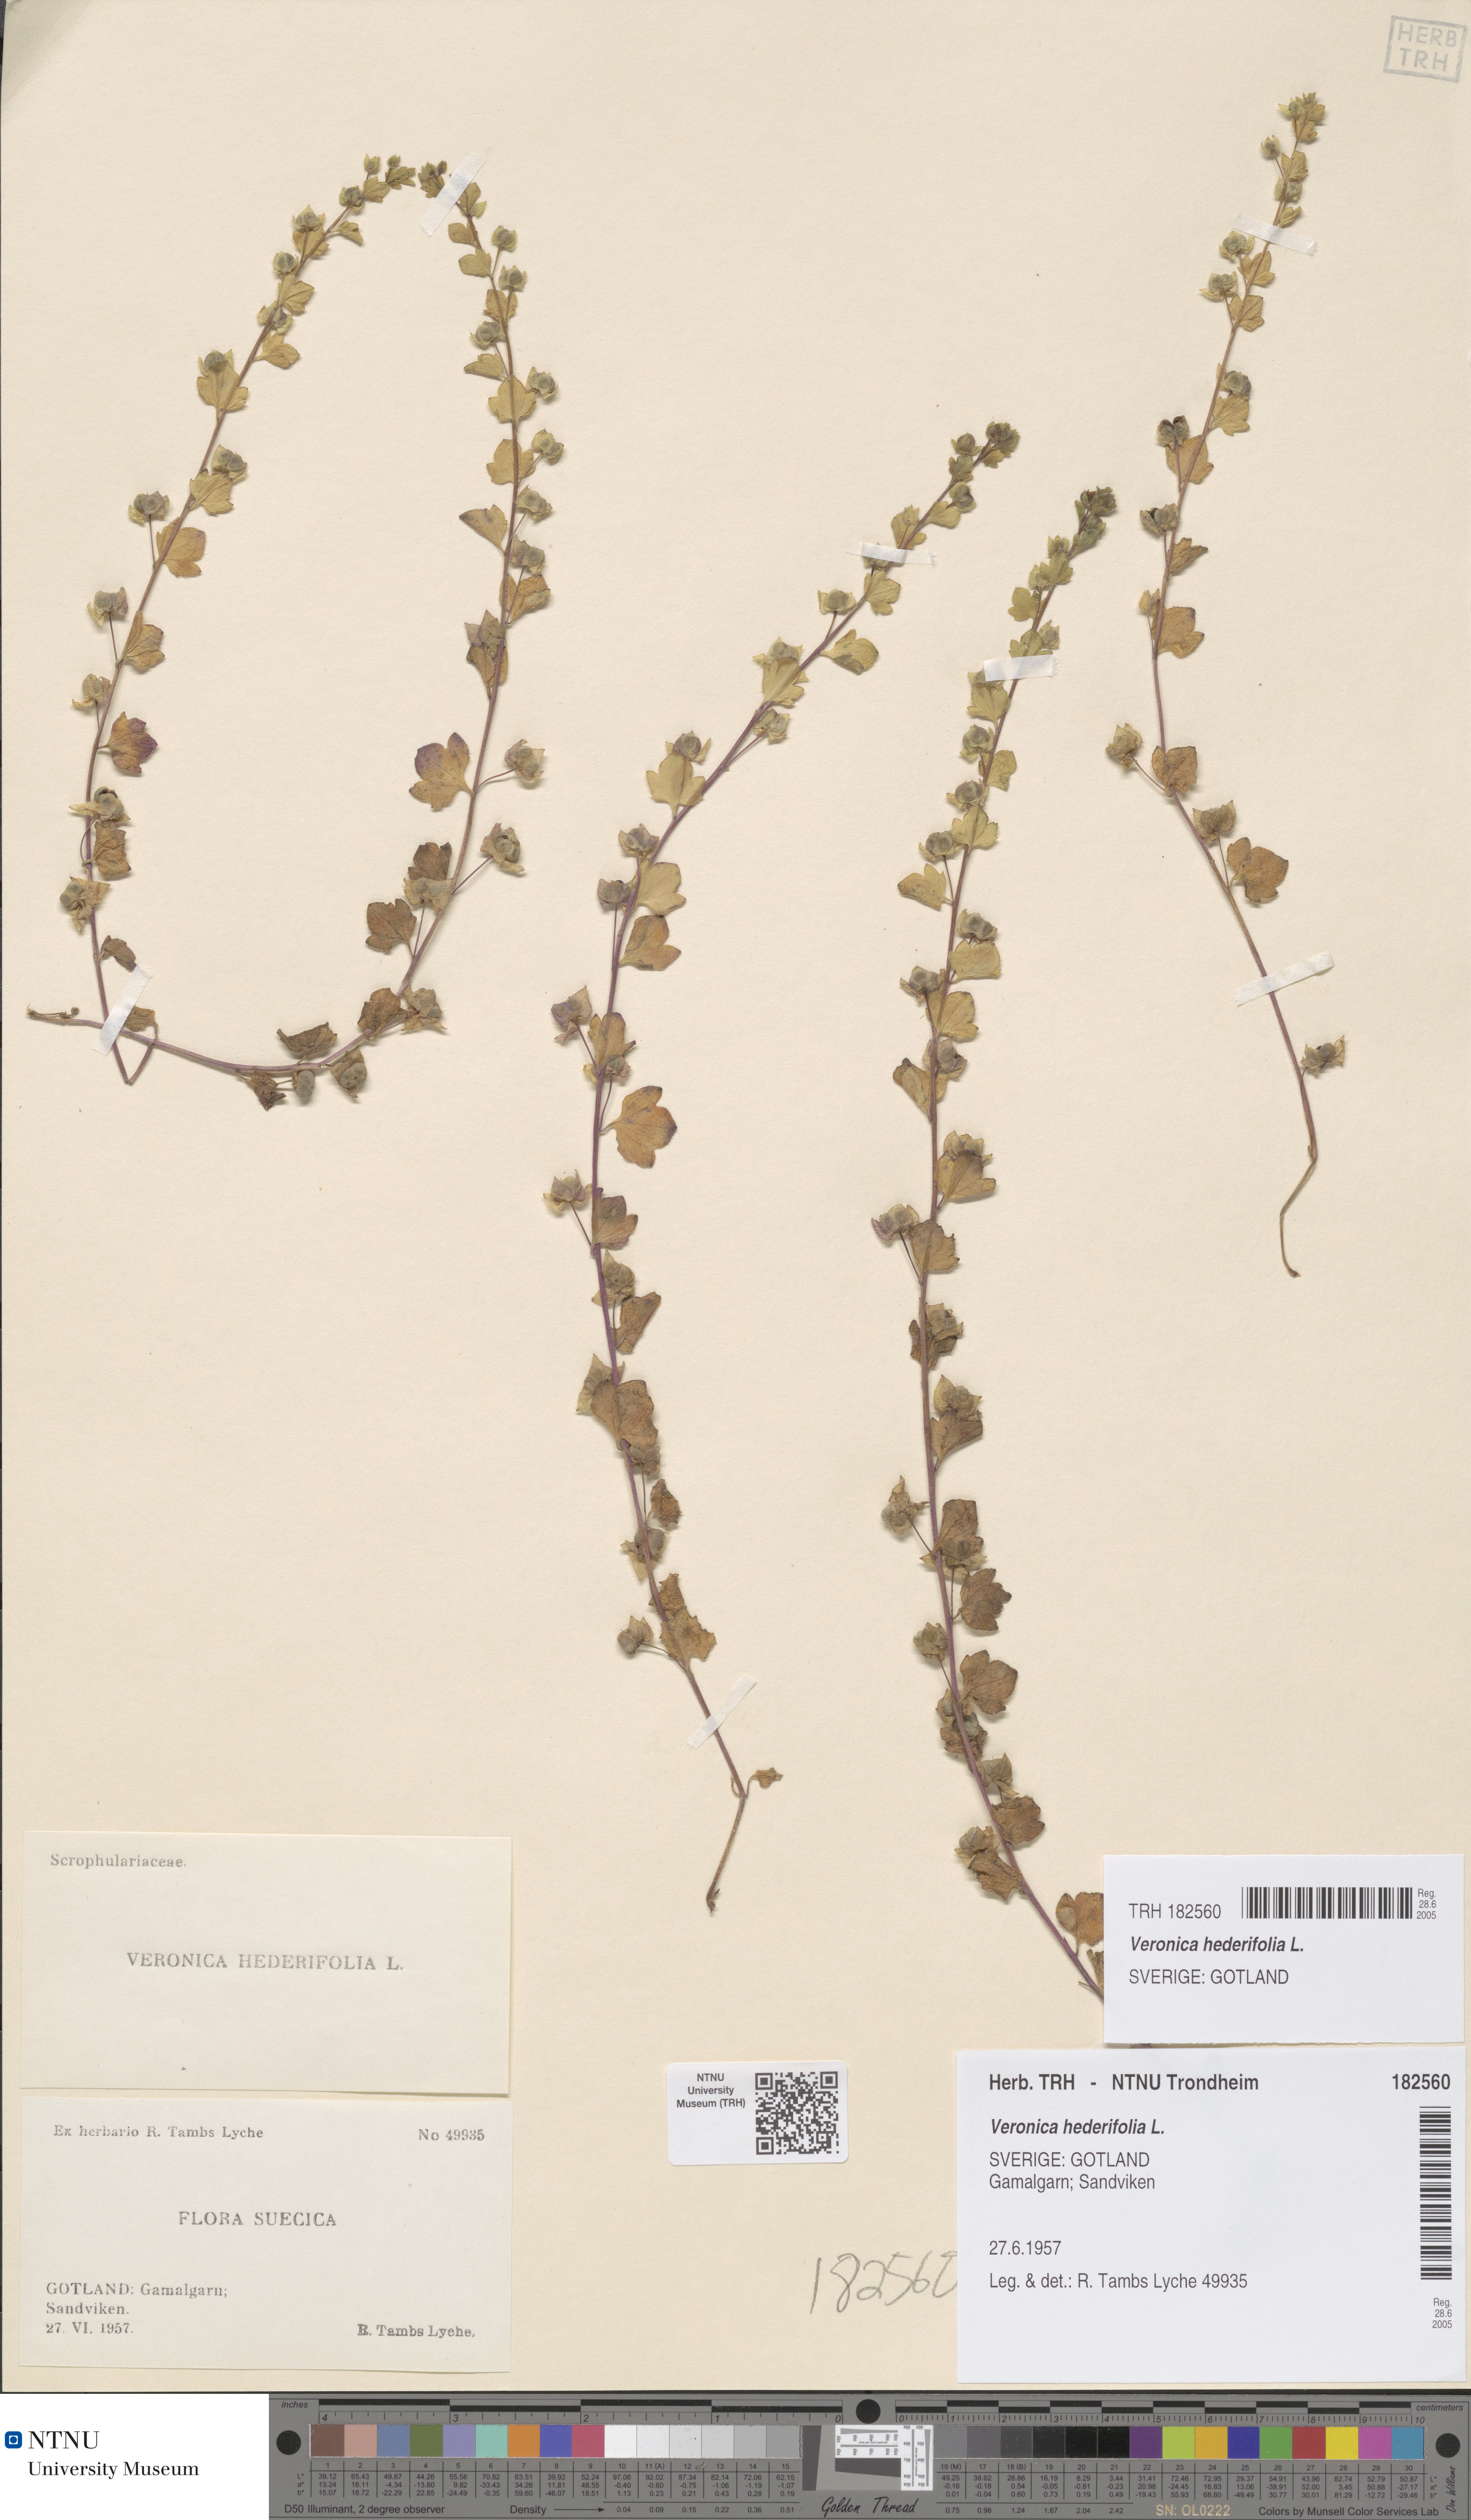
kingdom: Plantae
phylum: Tracheophyta
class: Magnoliopsida
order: Lamiales
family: Plantaginaceae
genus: Veronica
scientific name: Veronica hederifolia
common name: Ivy-leaved speedwell
